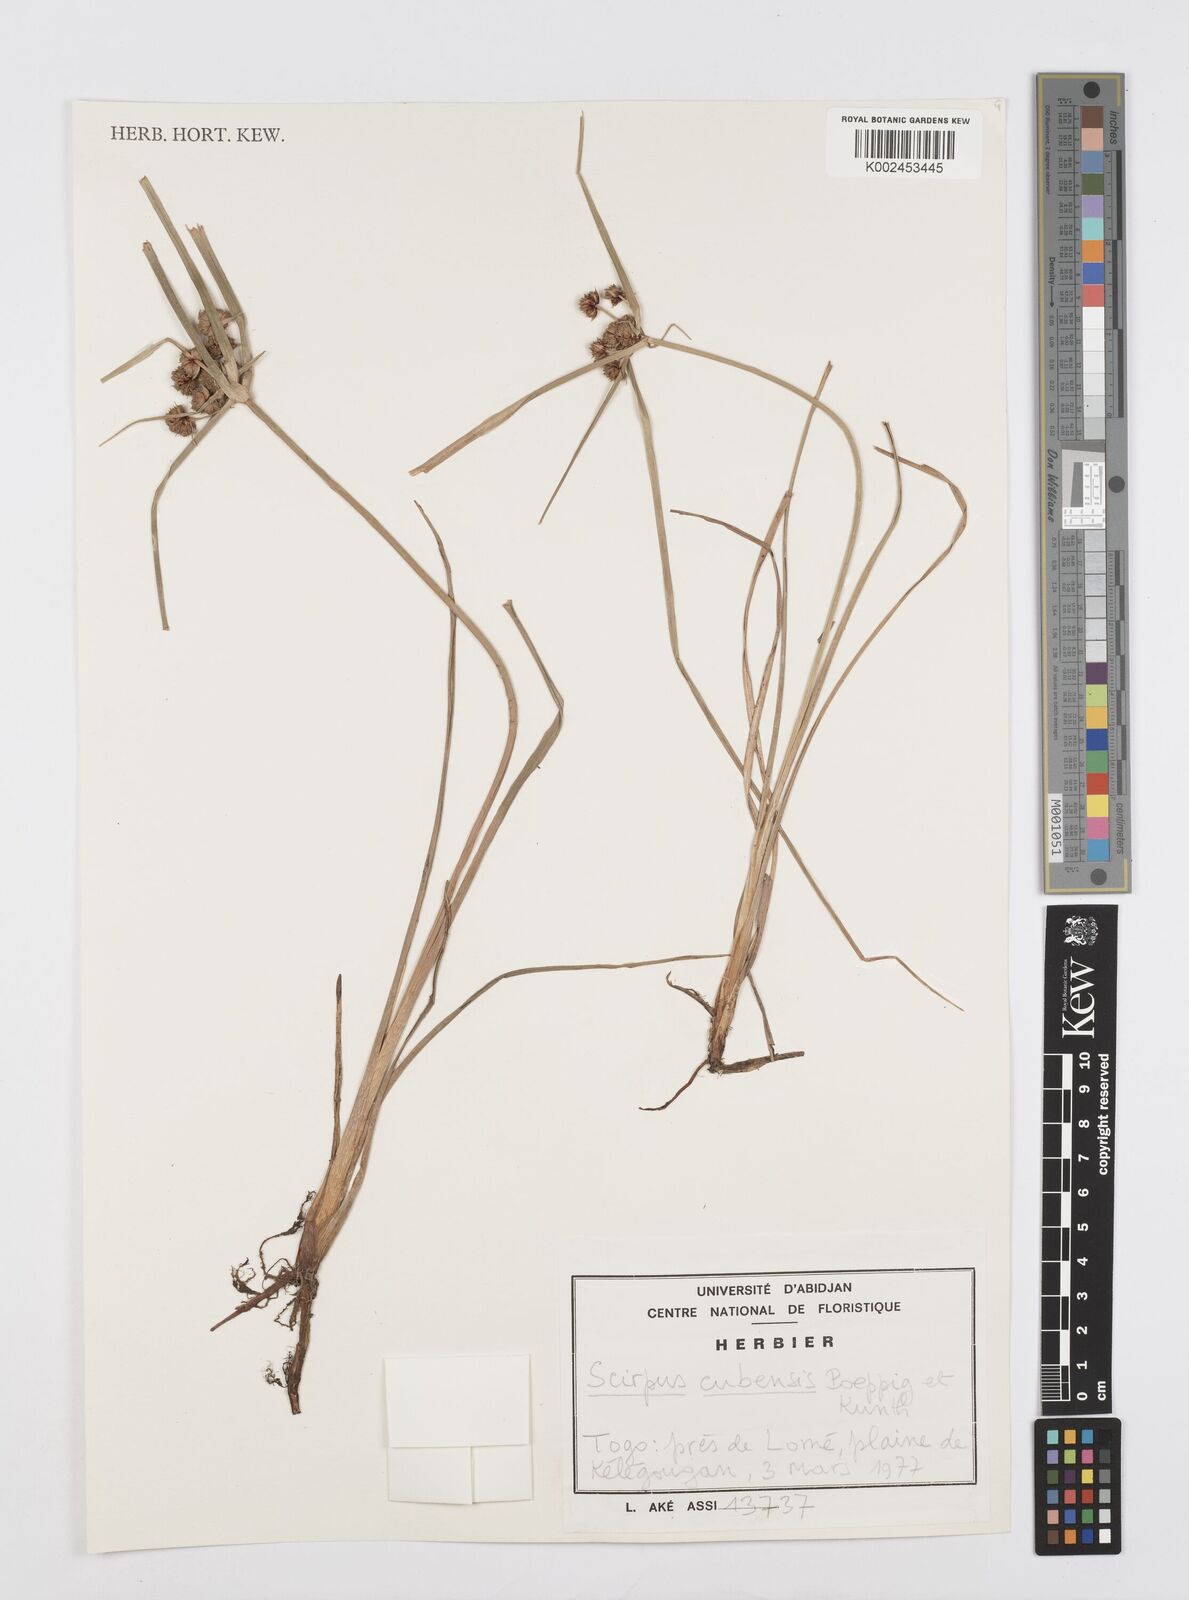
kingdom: Plantae
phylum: Tracheophyta
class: Liliopsida
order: Poales
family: Cyperaceae
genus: Cyperus
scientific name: Cyperus elegans
